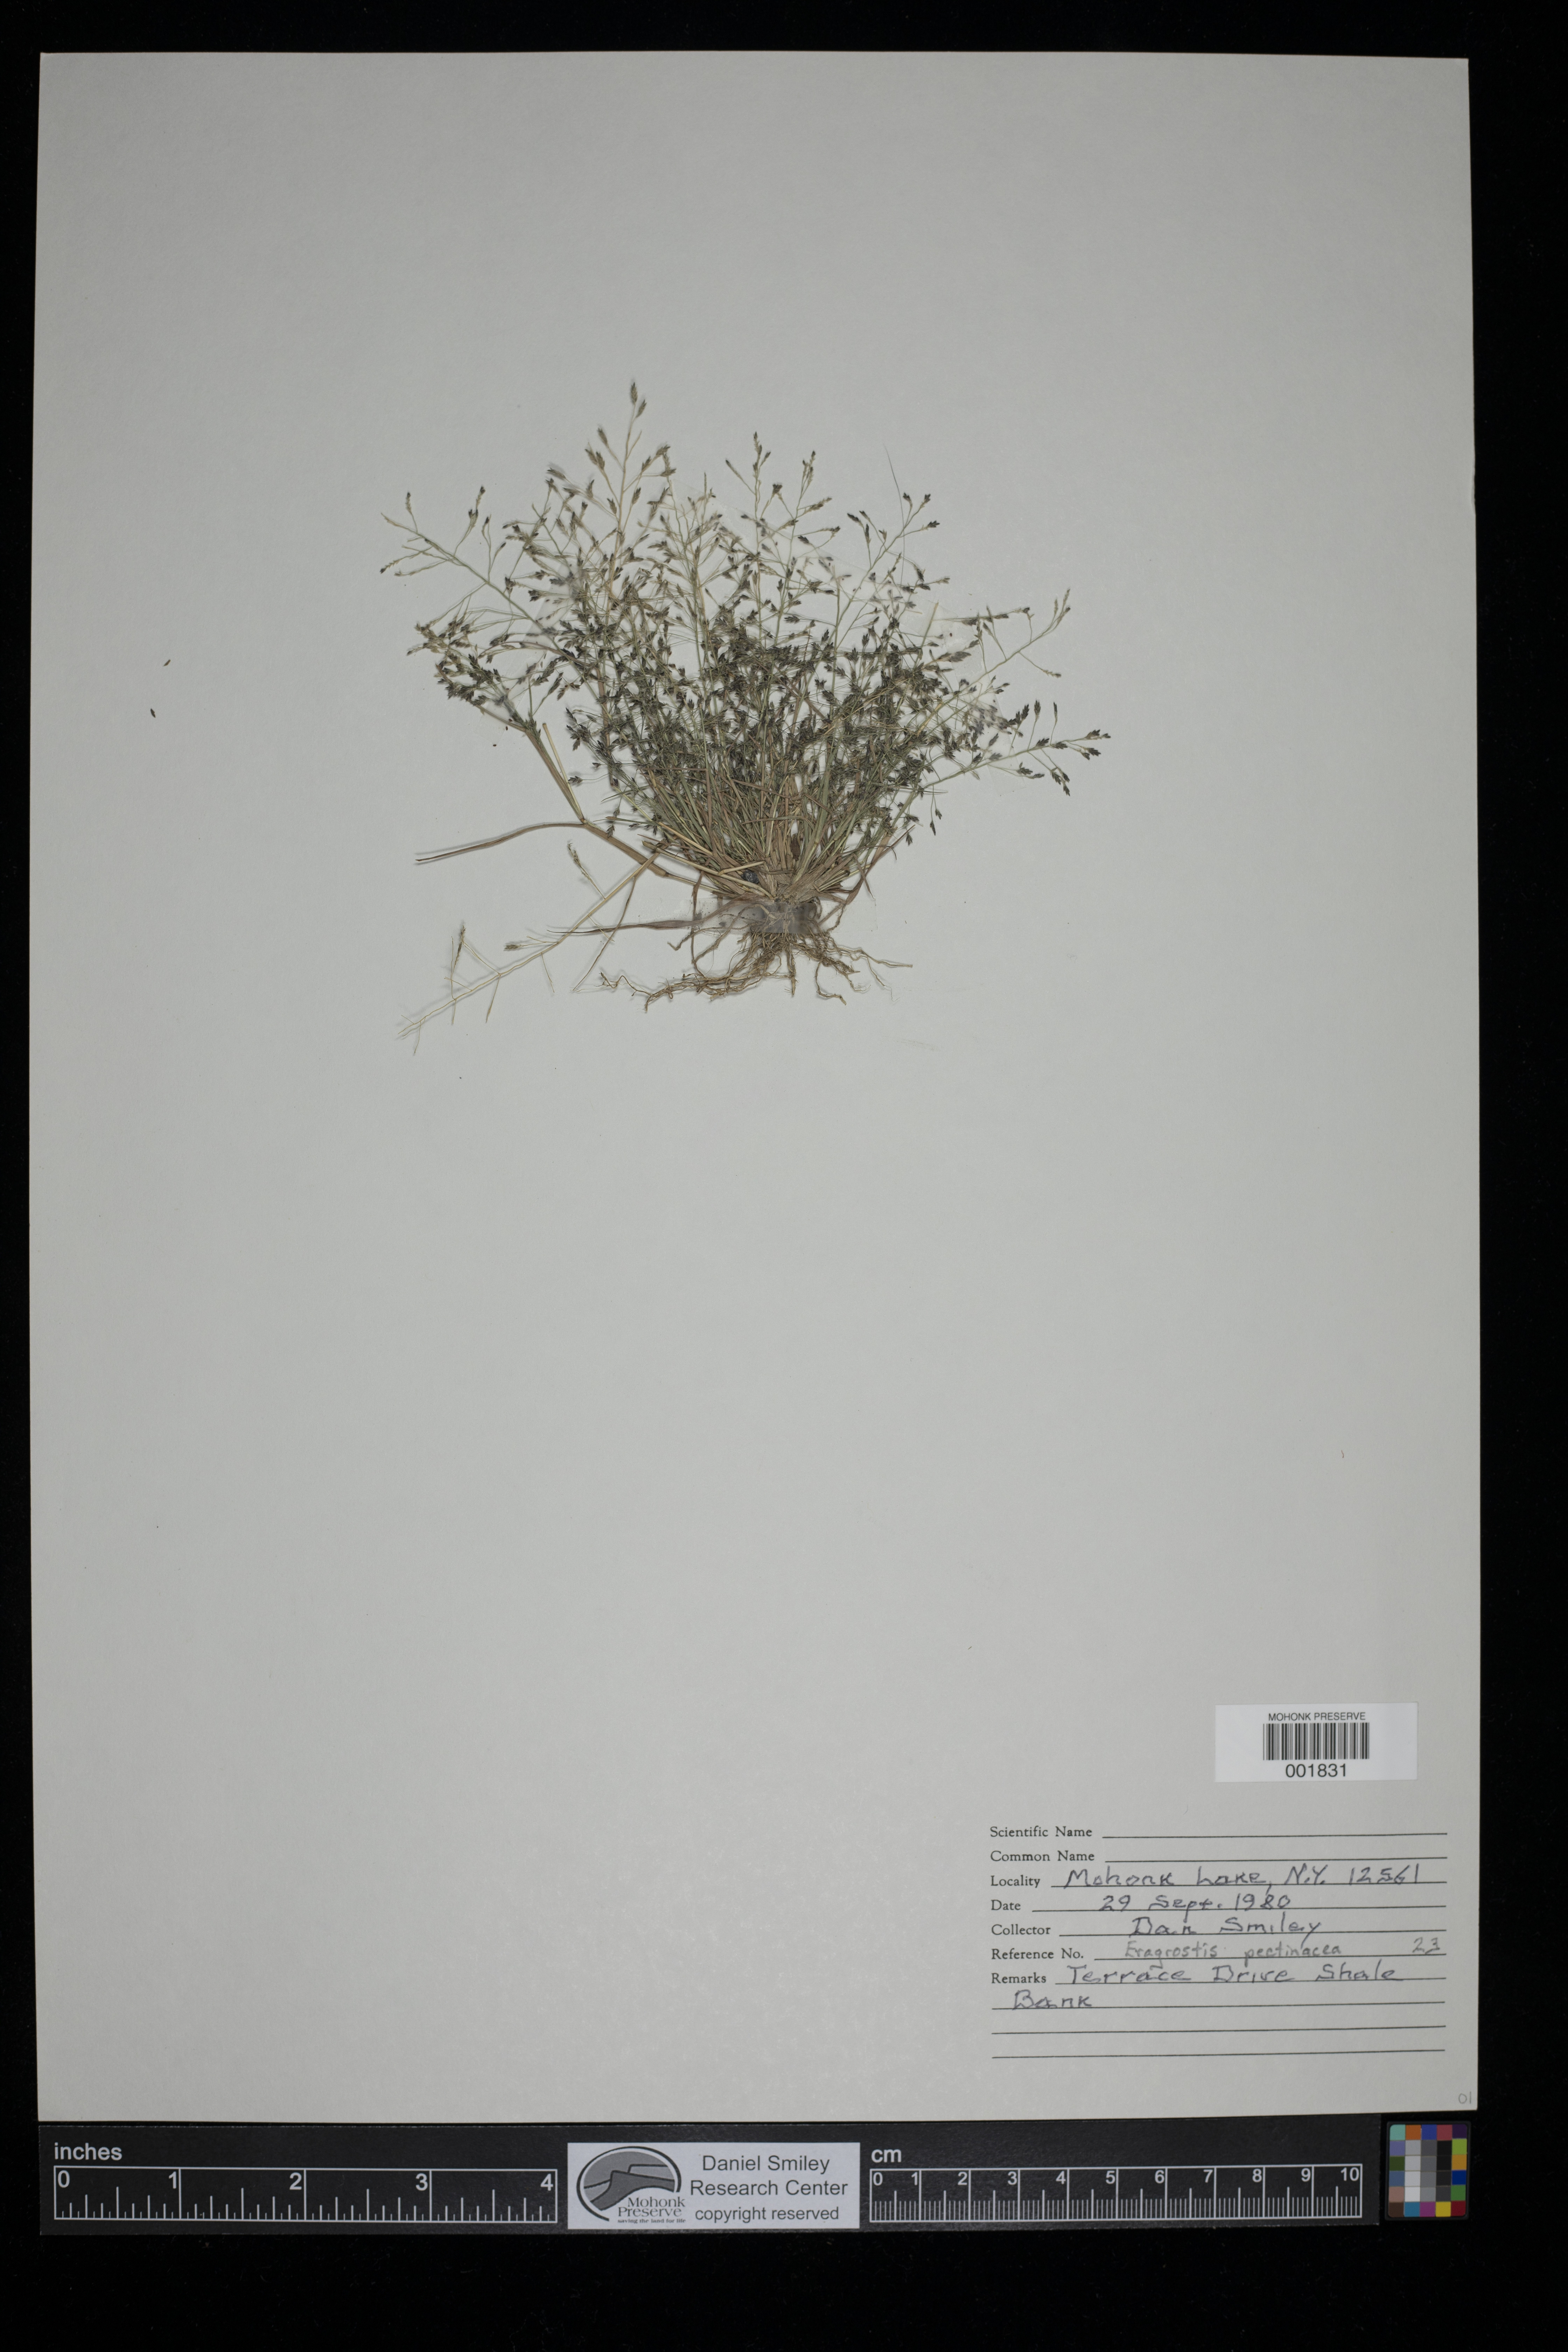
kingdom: Plantae
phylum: Tracheophyta
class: Liliopsida
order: Poales
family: Poaceae
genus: Eragrostis
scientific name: Eragrostis pectinacea
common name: Tufted lovegrass
